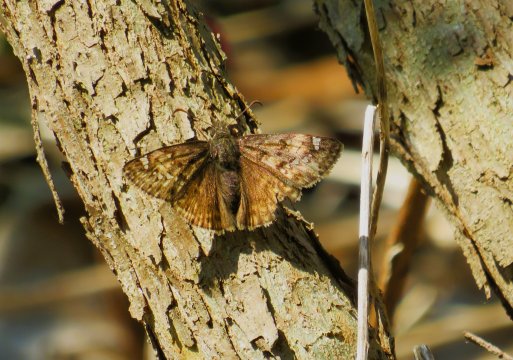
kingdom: Animalia
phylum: Arthropoda
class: Insecta
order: Lepidoptera
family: Hesperiidae
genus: Gesta
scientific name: Gesta
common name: Horace's Duskywing
